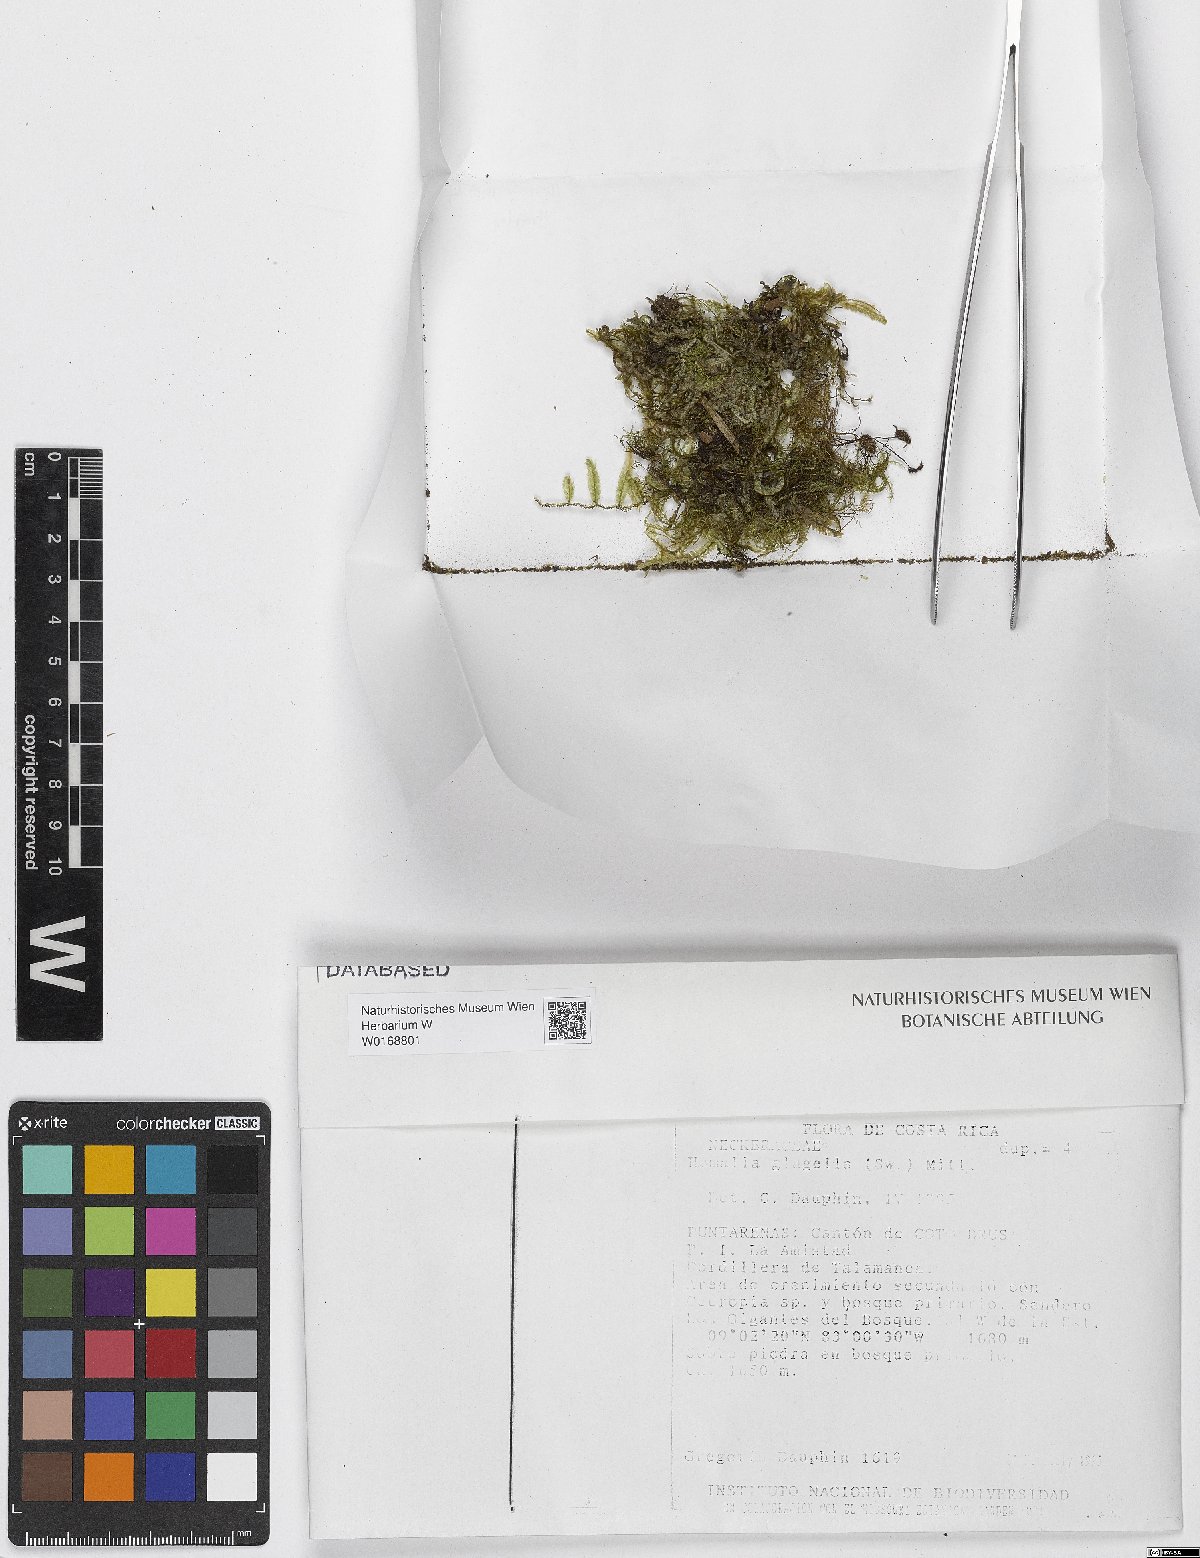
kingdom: Plantae
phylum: Bryophyta
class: Bryopsida
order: Hypnales
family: Neckeraceae
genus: Homalia
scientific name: Homalia
